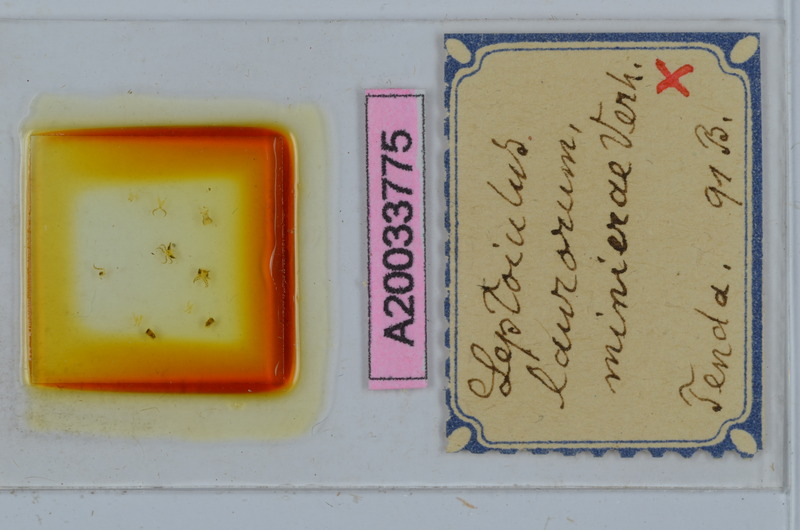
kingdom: Animalia
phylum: Arthropoda
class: Diplopoda
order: Julida
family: Julidae
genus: Leptoiulus
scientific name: Leptoiulus laurorum
